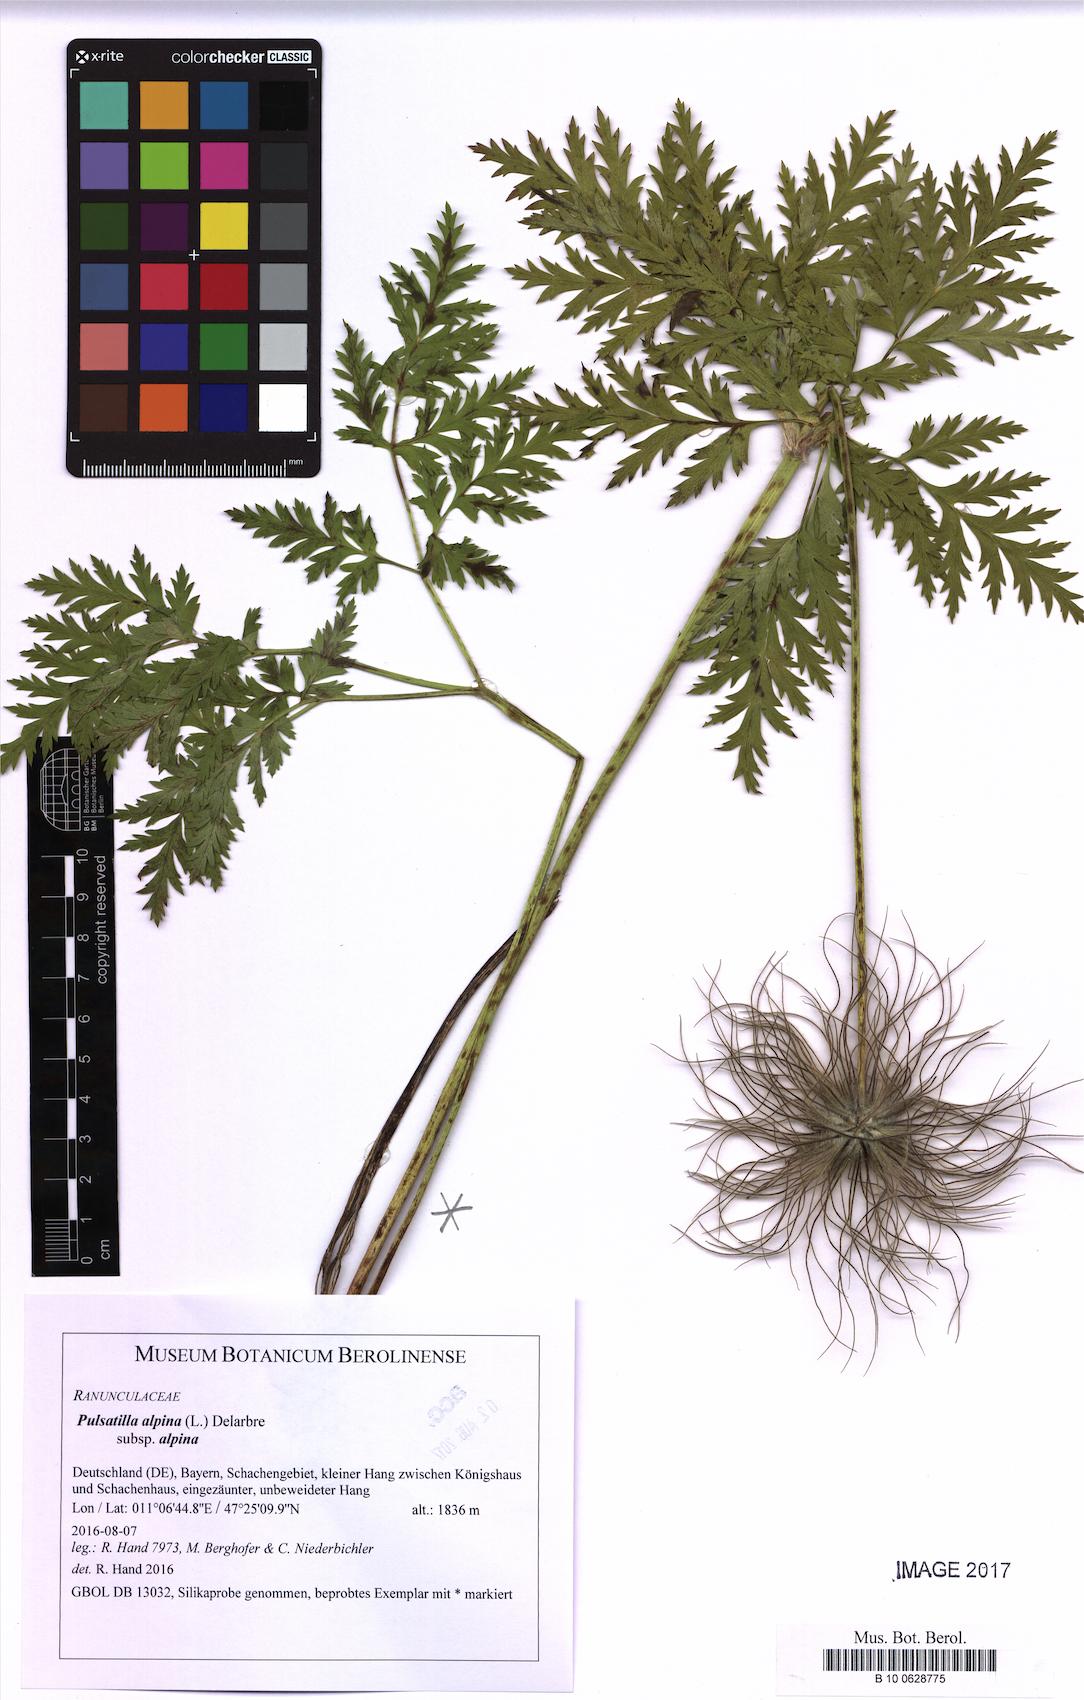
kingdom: Plantae
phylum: Tracheophyta
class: Magnoliopsida
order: Ranunculales
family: Ranunculaceae
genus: Pulsatilla
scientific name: Pulsatilla alpina
